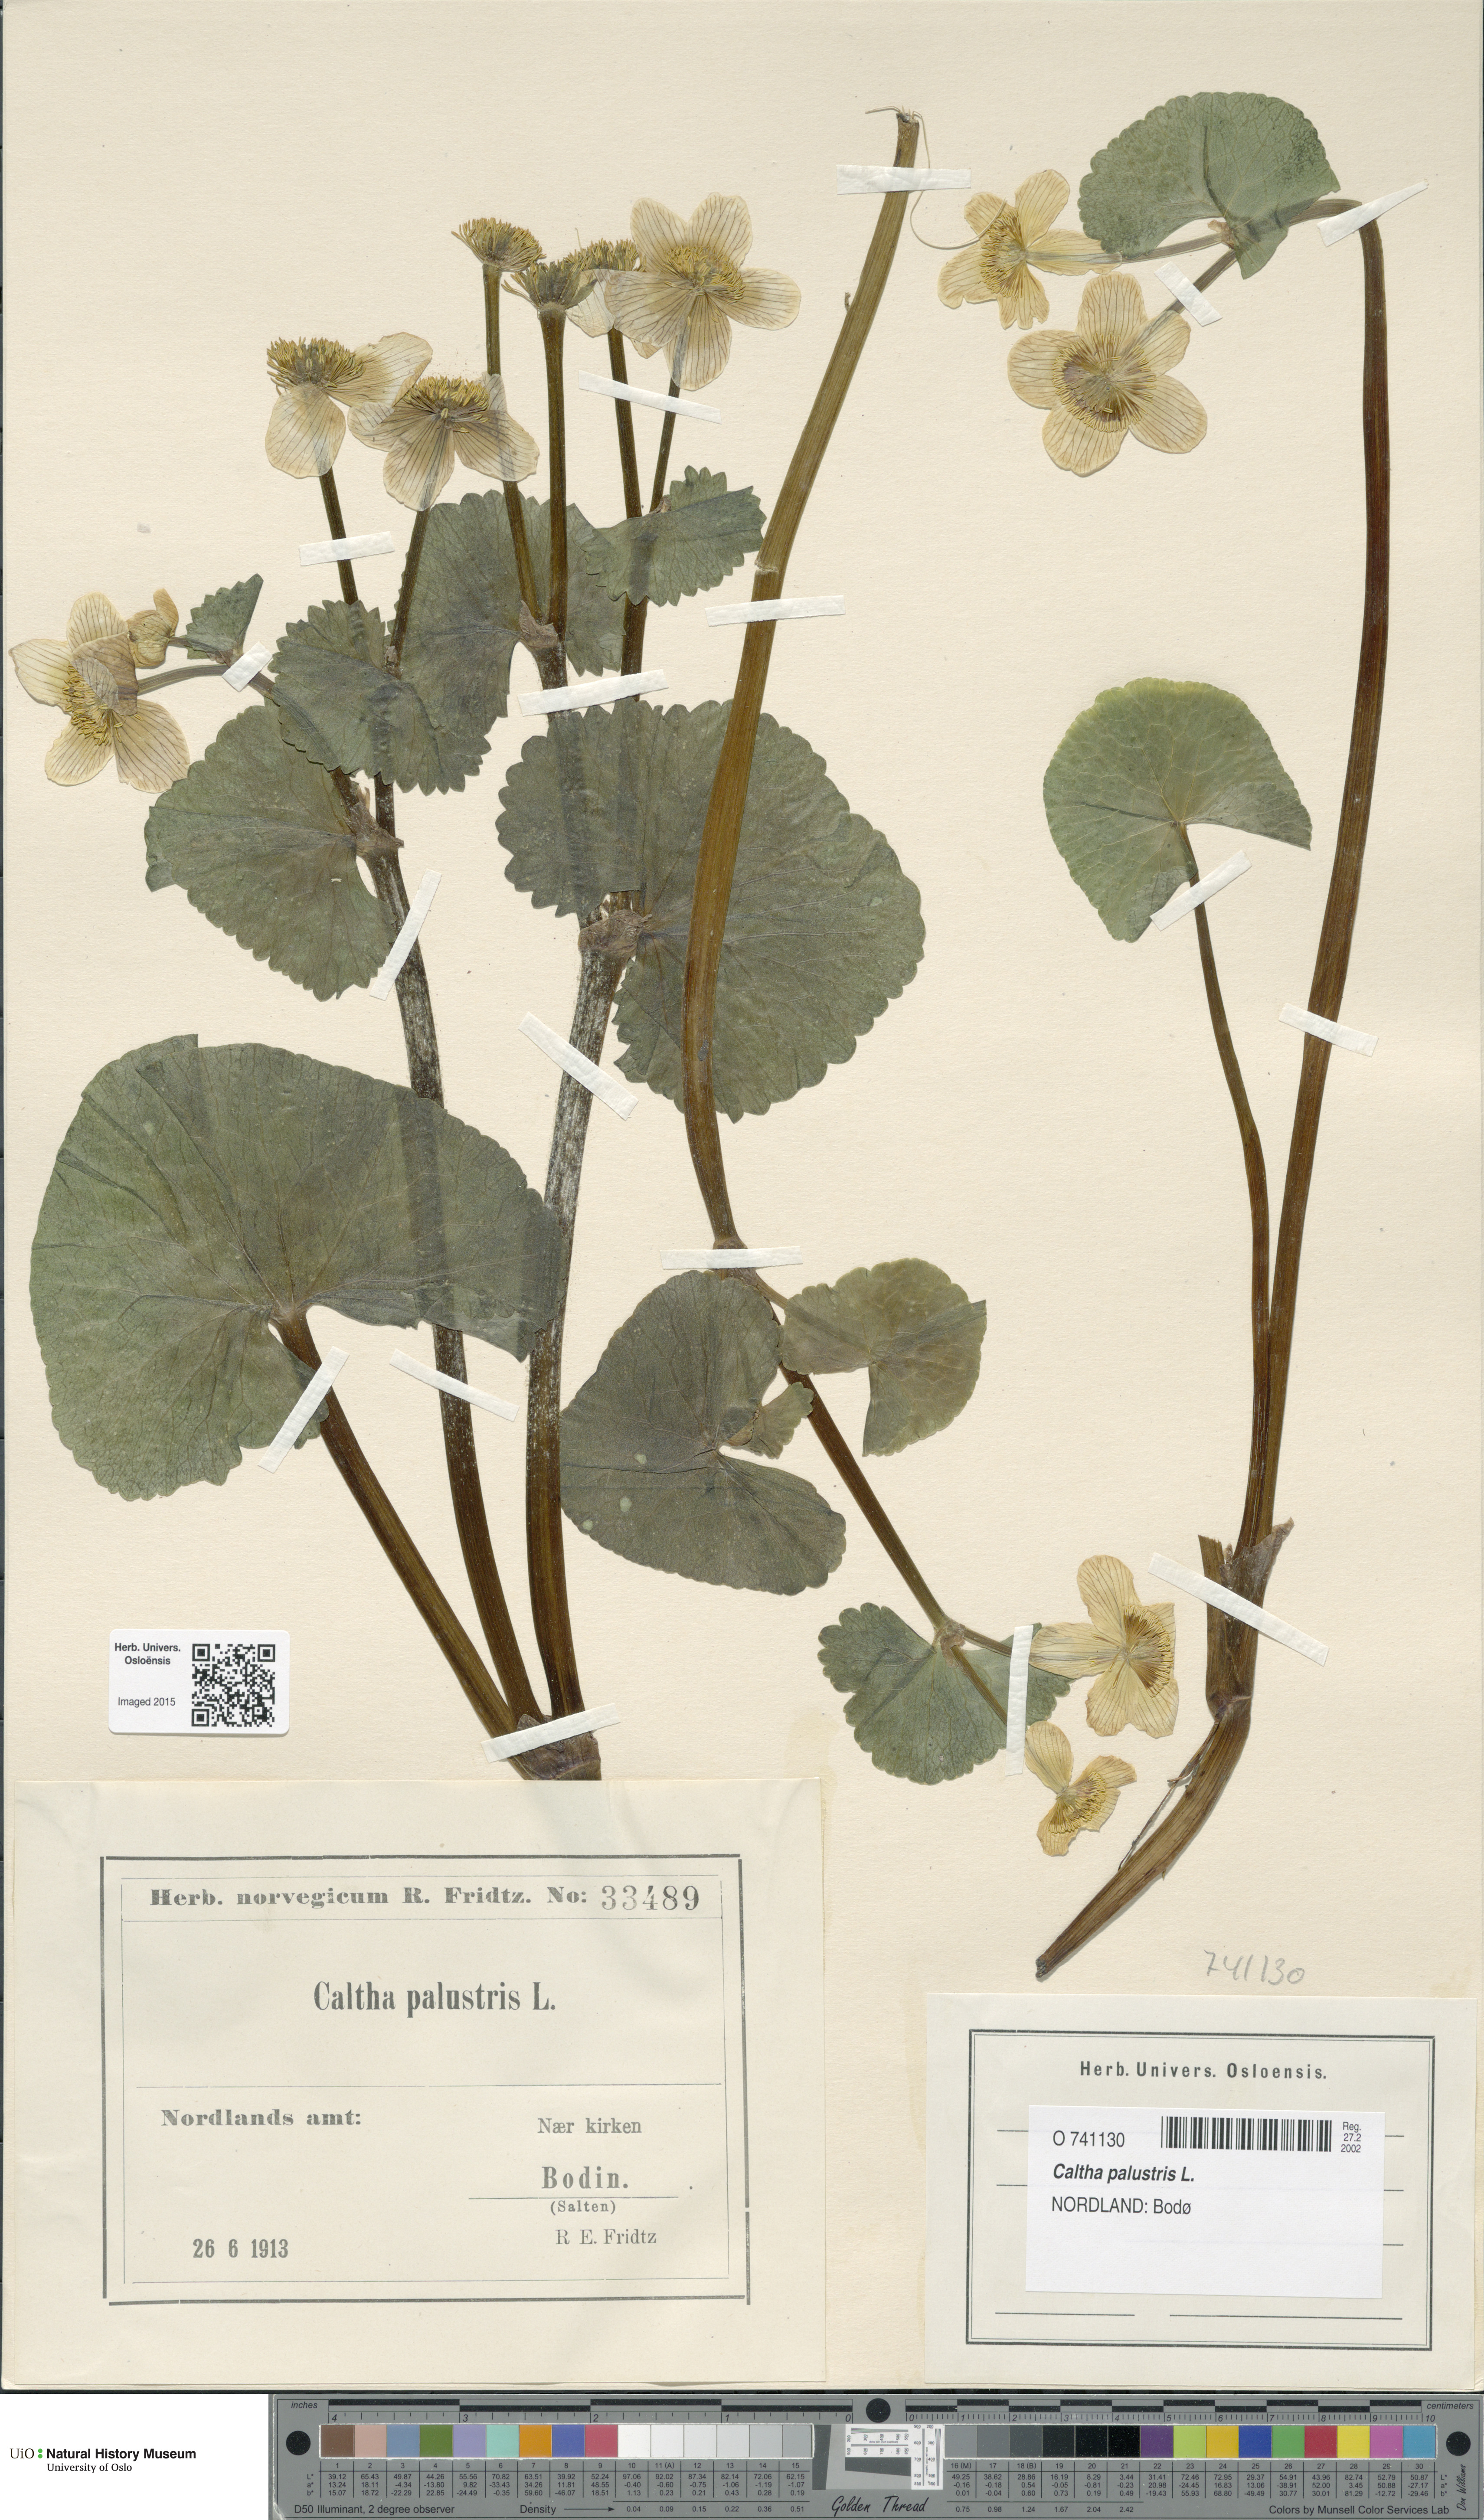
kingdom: Plantae
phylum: Tracheophyta
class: Magnoliopsida
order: Ranunculales
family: Ranunculaceae
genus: Caltha
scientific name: Caltha palustris
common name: Marsh marigold
